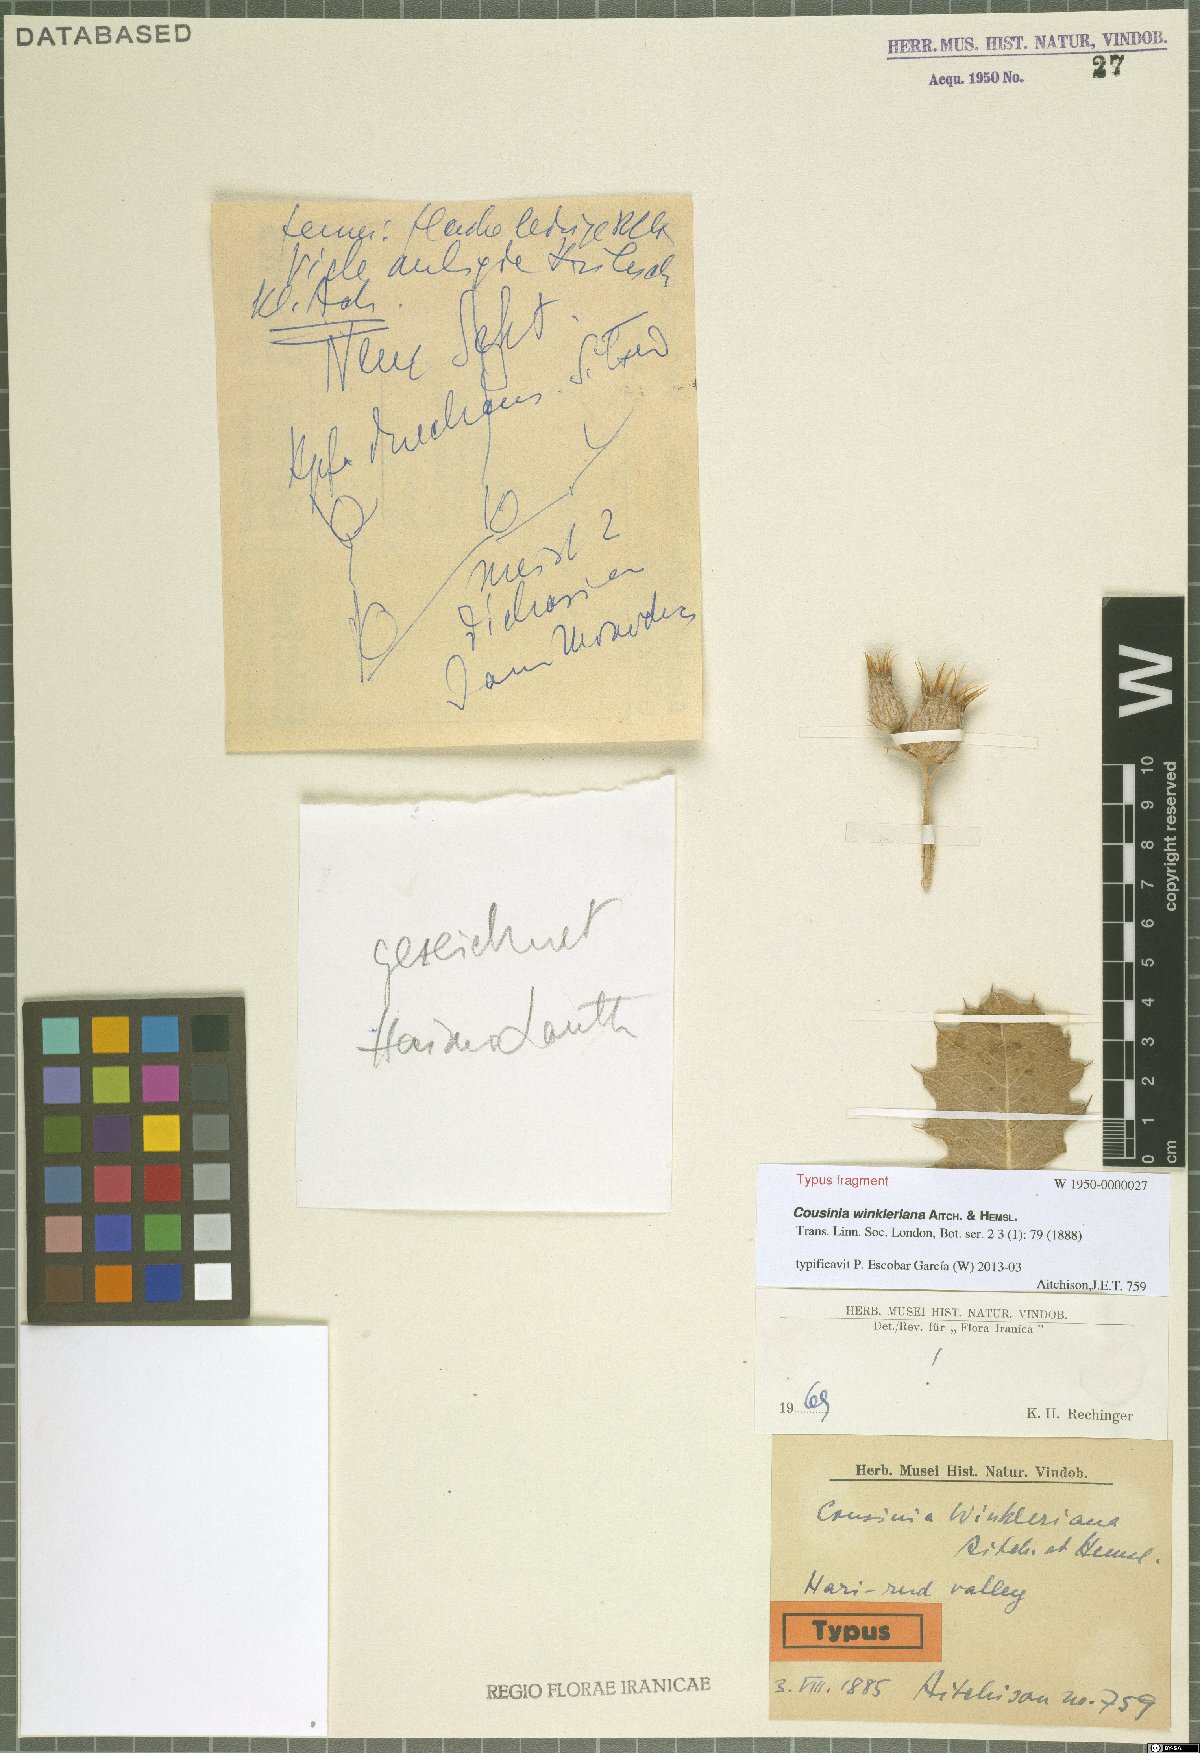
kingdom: Plantae
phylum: Tracheophyta
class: Magnoliopsida
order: Asterales
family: Asteraceae
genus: Cousinia
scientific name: Cousinia winkleriana
